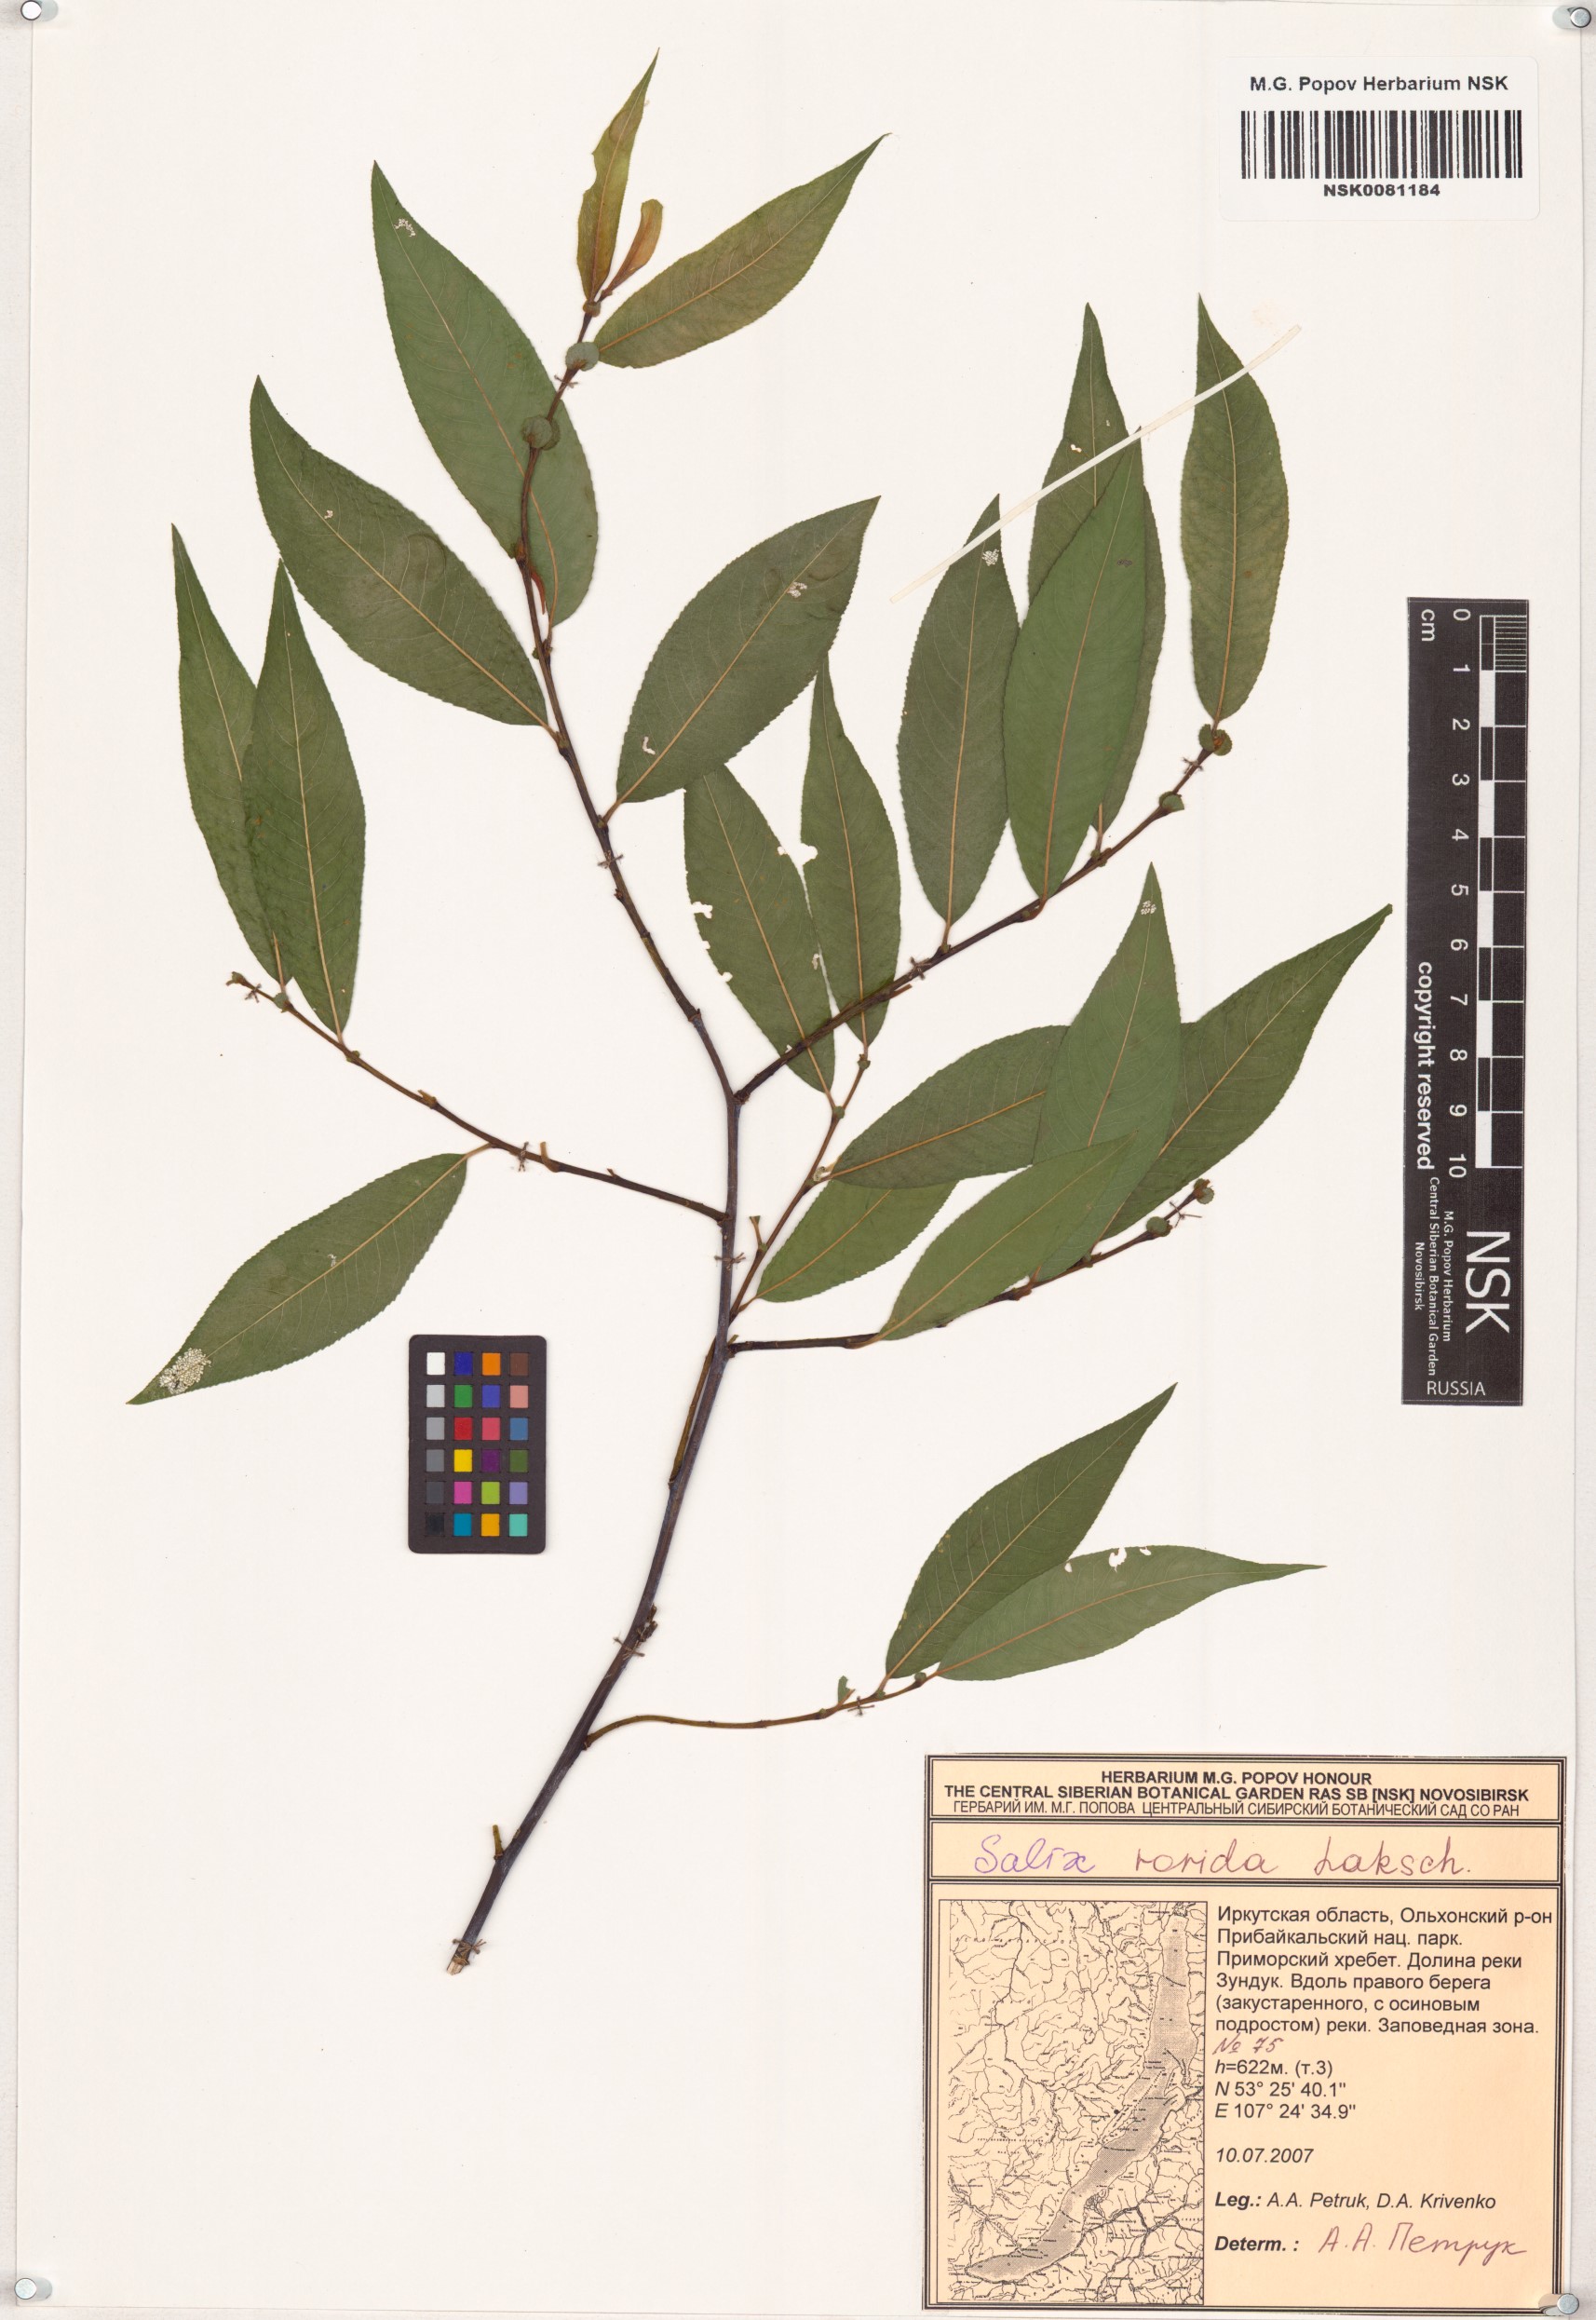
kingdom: Plantae
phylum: Tracheophyta
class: Magnoliopsida
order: Malpighiales
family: Salicaceae
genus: Salix
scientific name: Salix rorida
